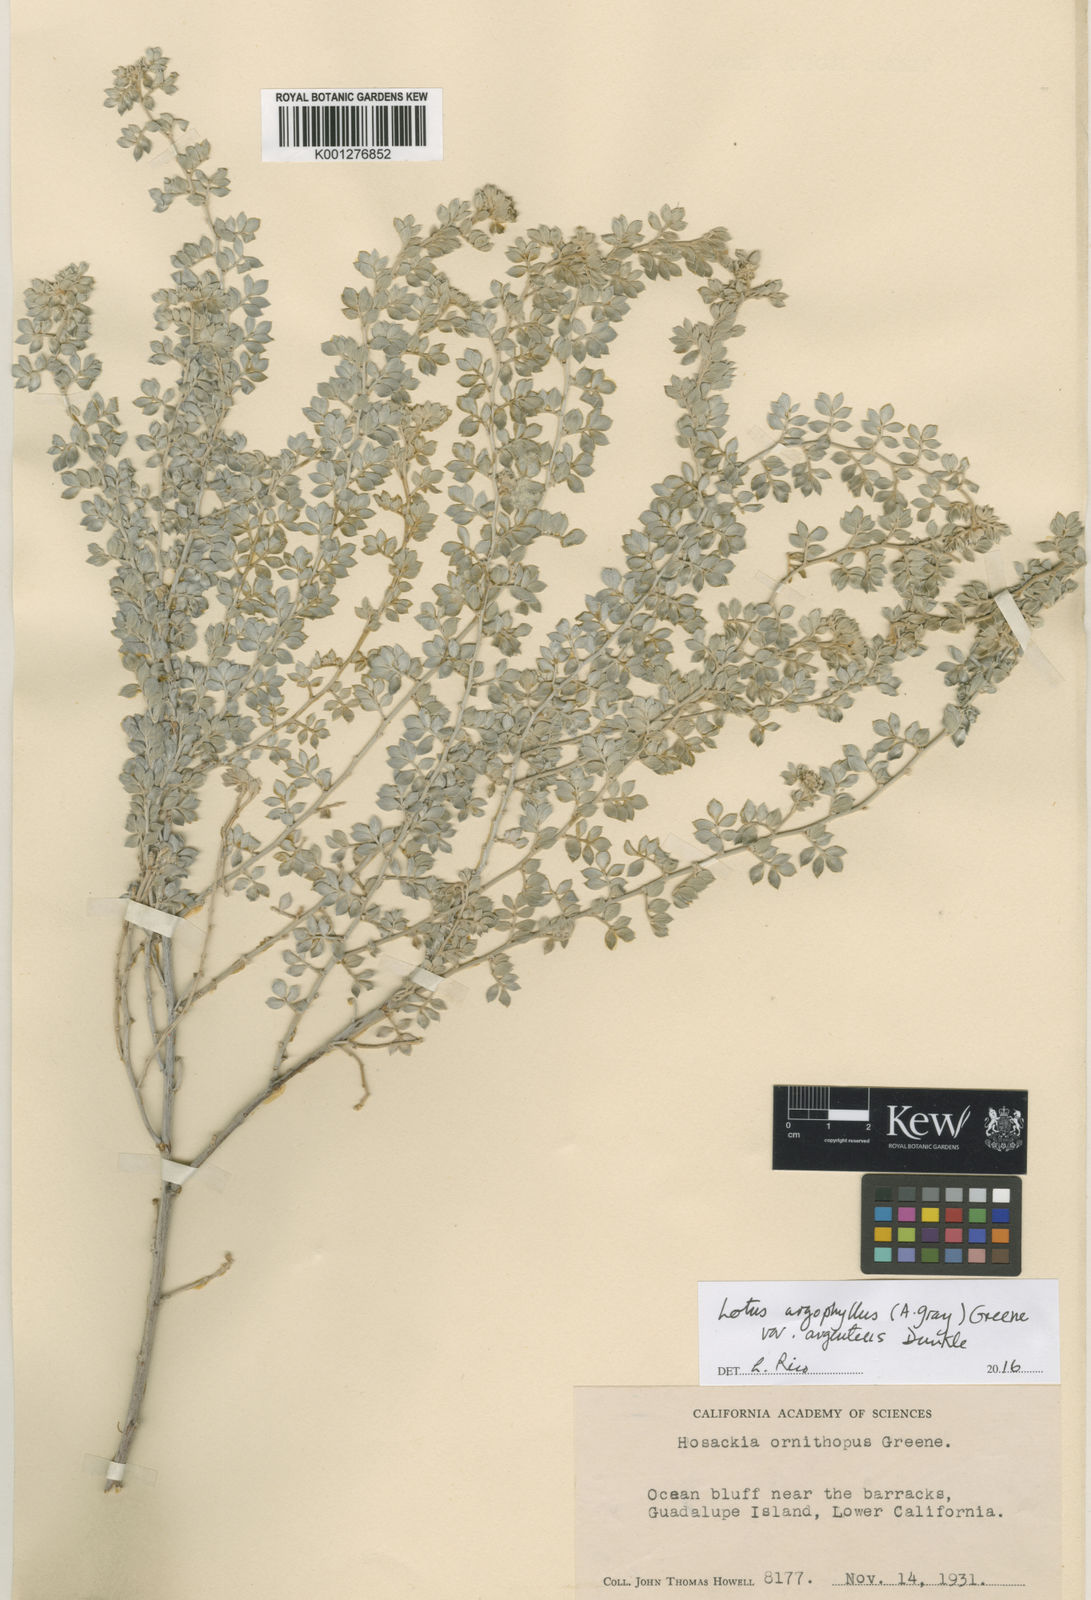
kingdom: Plantae
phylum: Tracheophyta
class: Magnoliopsida
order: Fabales
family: Fabaceae
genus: Acmispon
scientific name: Acmispon argophyllus
